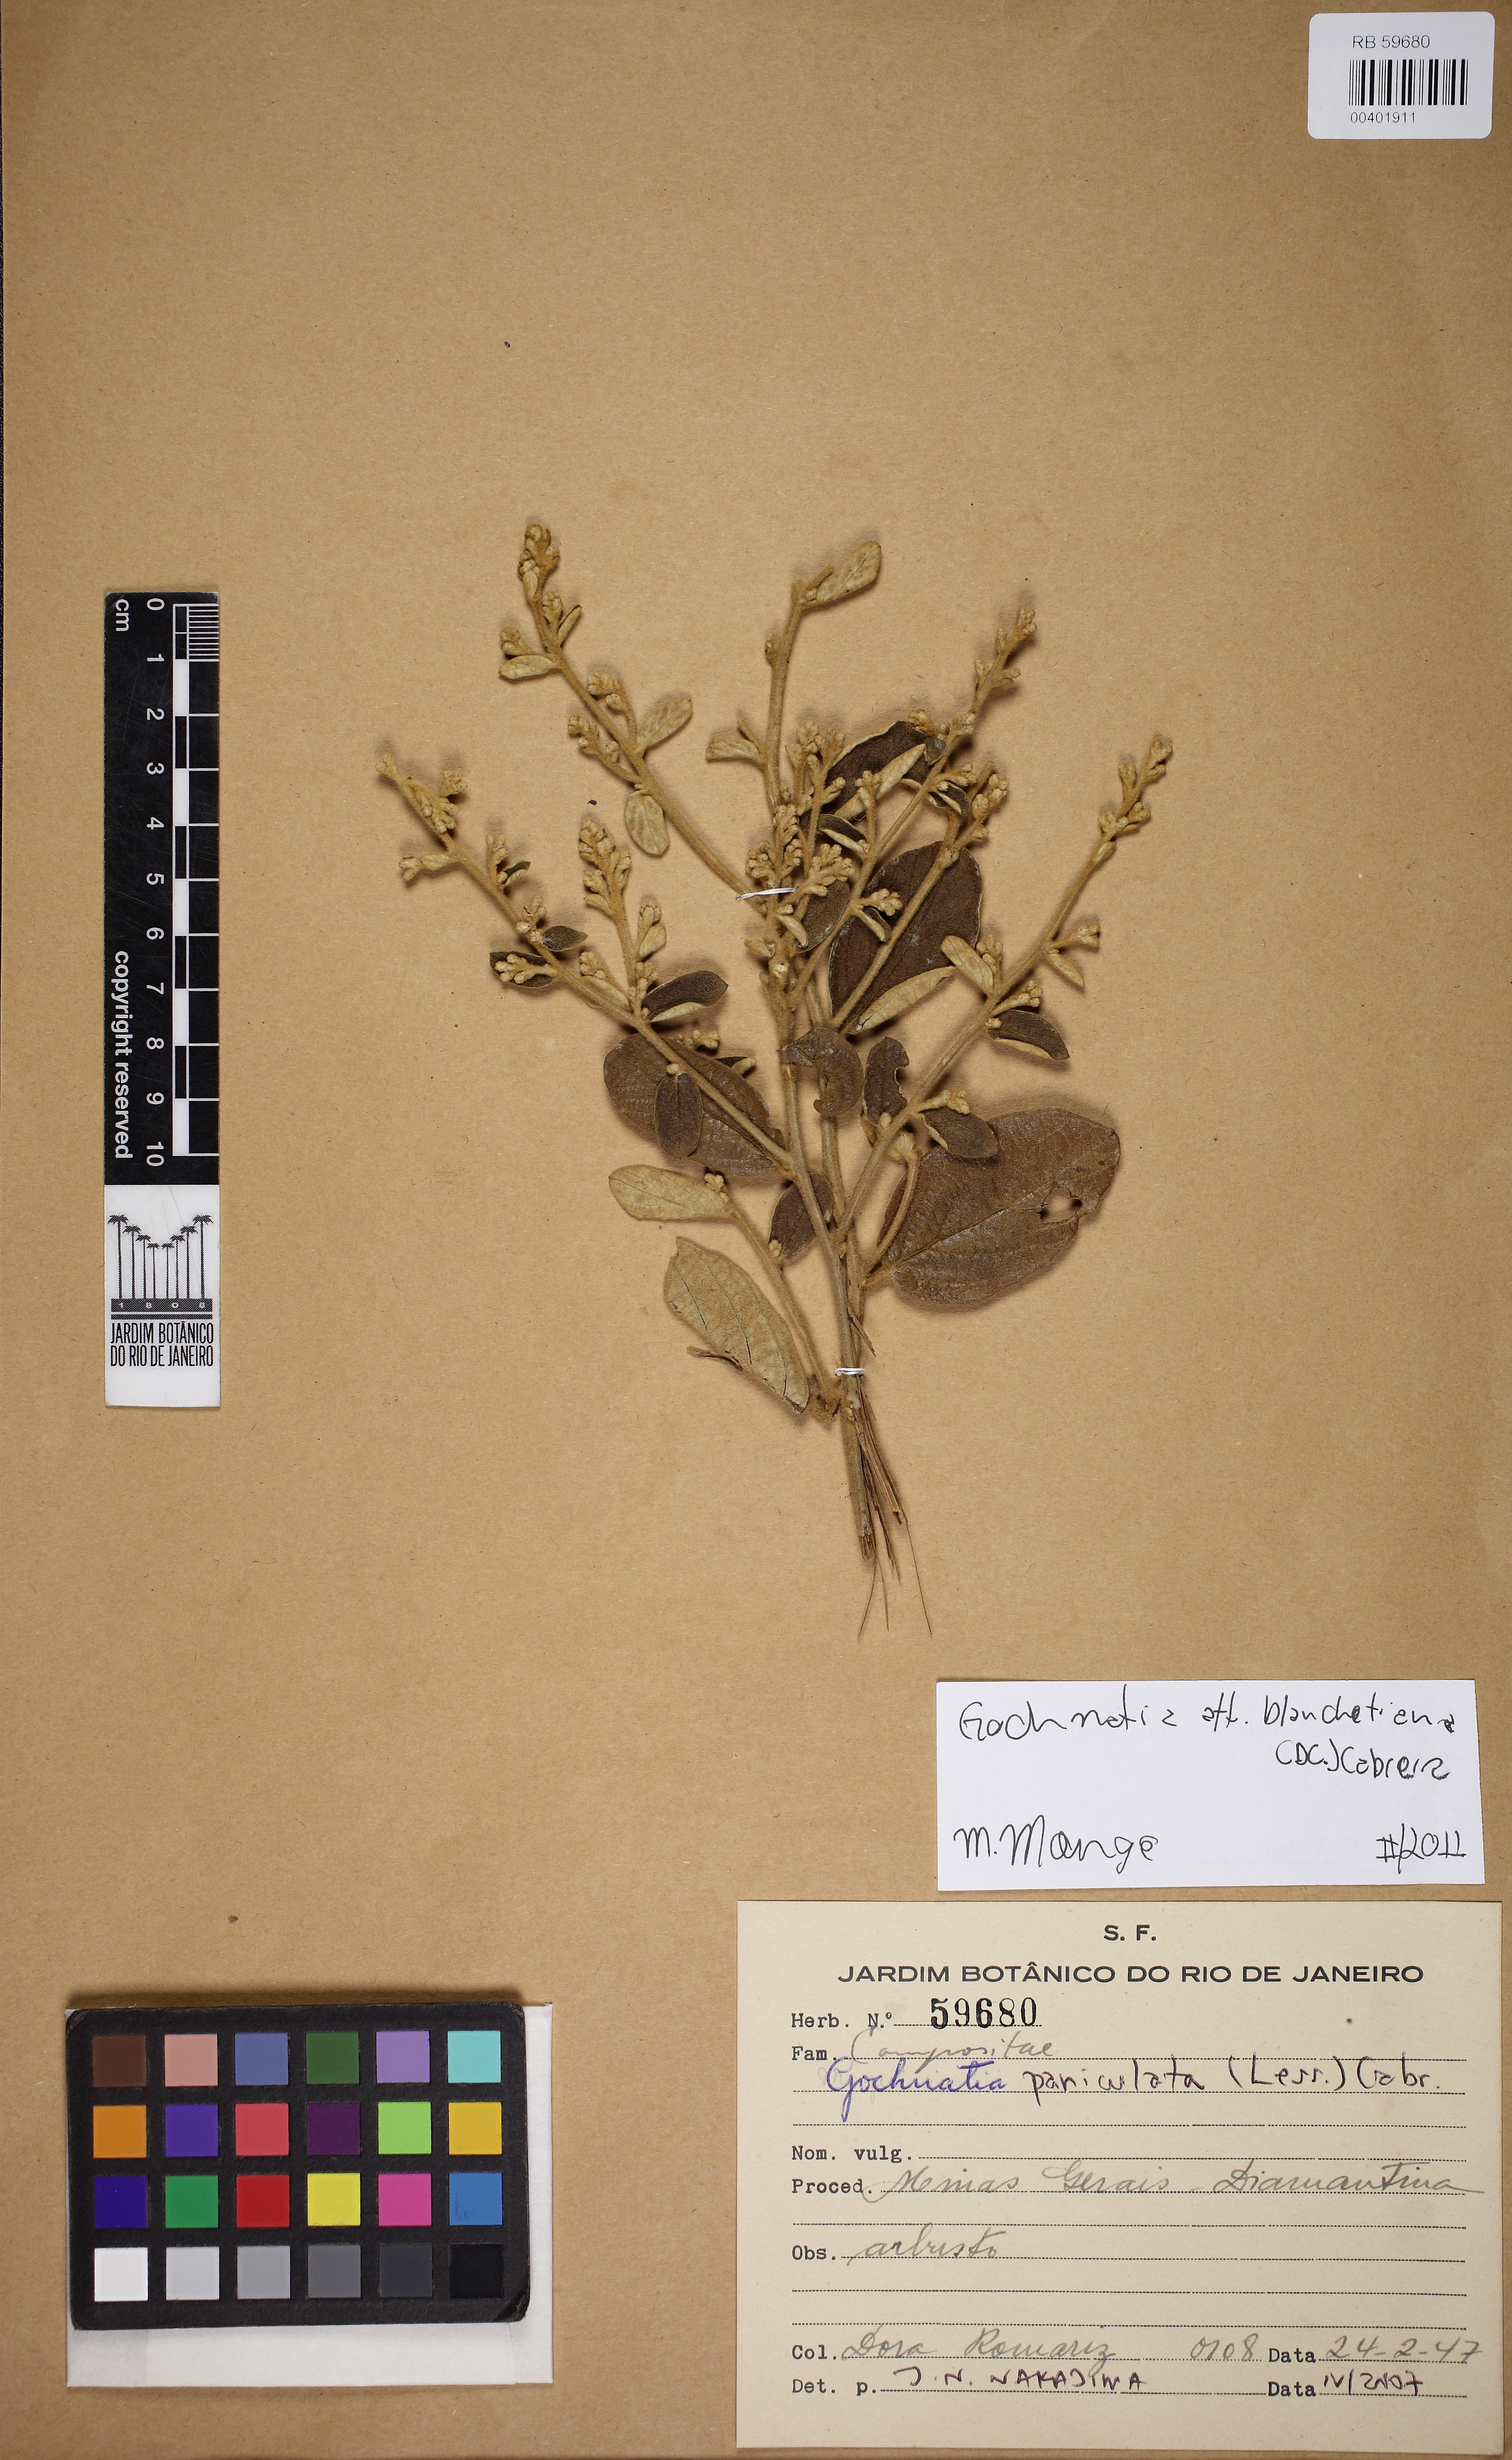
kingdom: Plantae
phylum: Tracheophyta
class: Magnoliopsida
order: Asterales
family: Asteraceae
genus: Moquiniastrum
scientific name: Moquiniastrum blanchetianum
